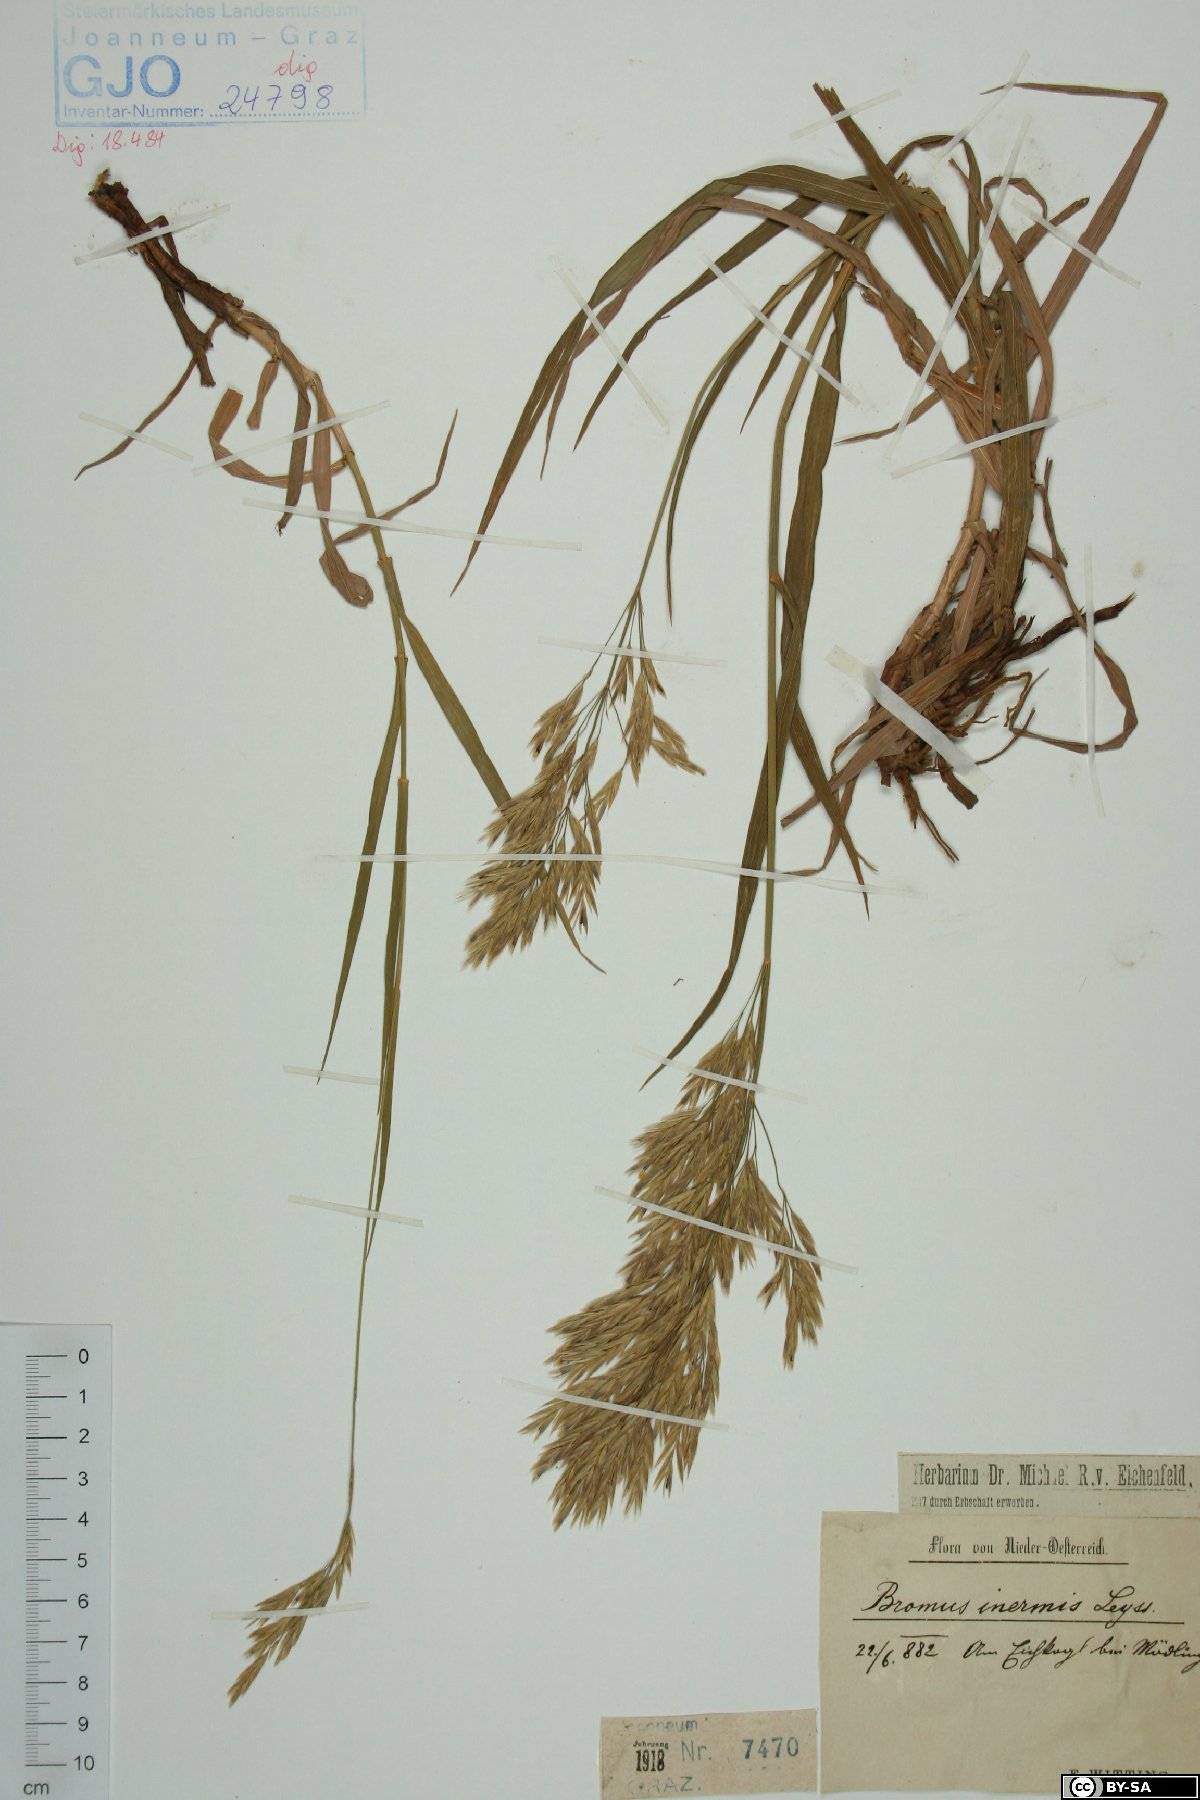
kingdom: Plantae
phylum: Tracheophyta
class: Liliopsida
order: Poales
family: Poaceae
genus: Bromus
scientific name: Bromus inermis
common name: Smooth brome
